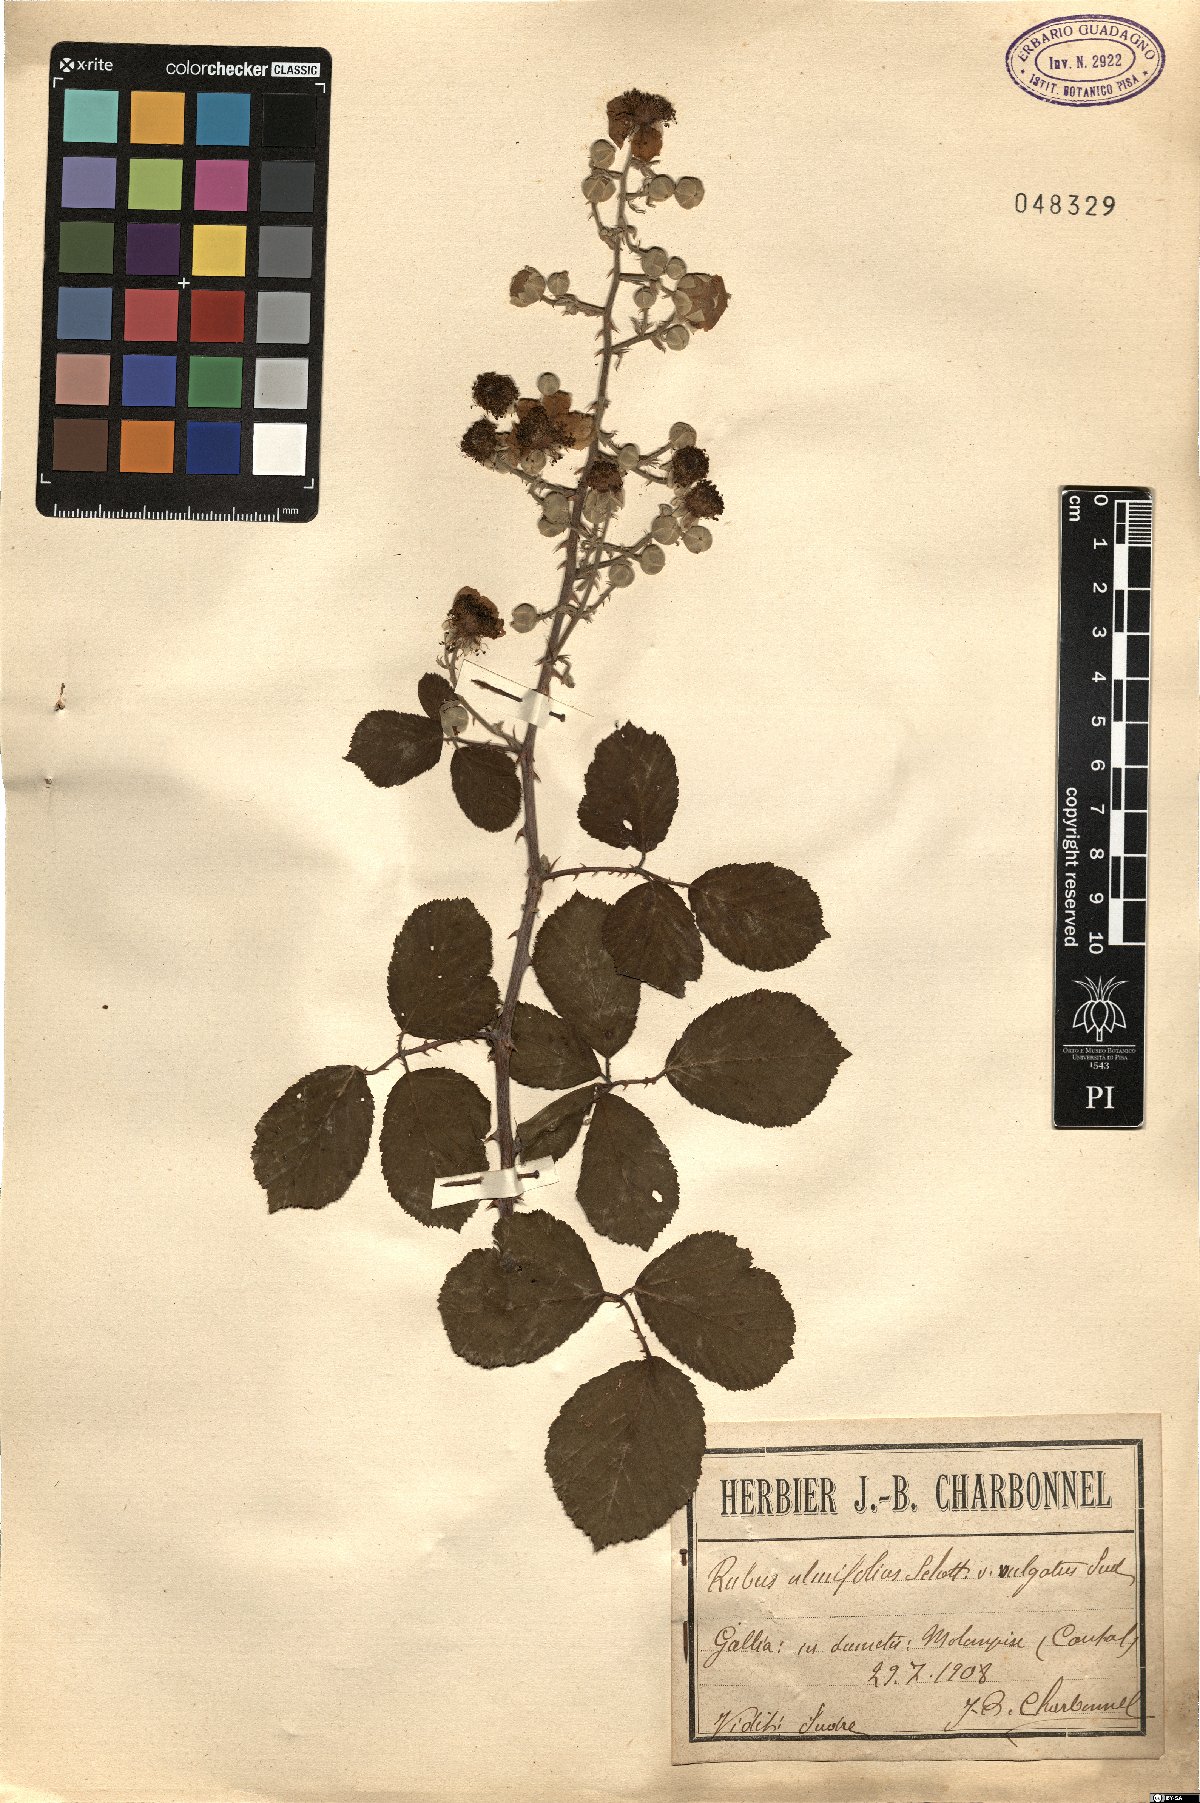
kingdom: Plantae
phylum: Tracheophyta
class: Magnoliopsida
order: Rosales
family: Rosaceae
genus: Rubus
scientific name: Rubus ulmifolius
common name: Elmleaf blackberry
